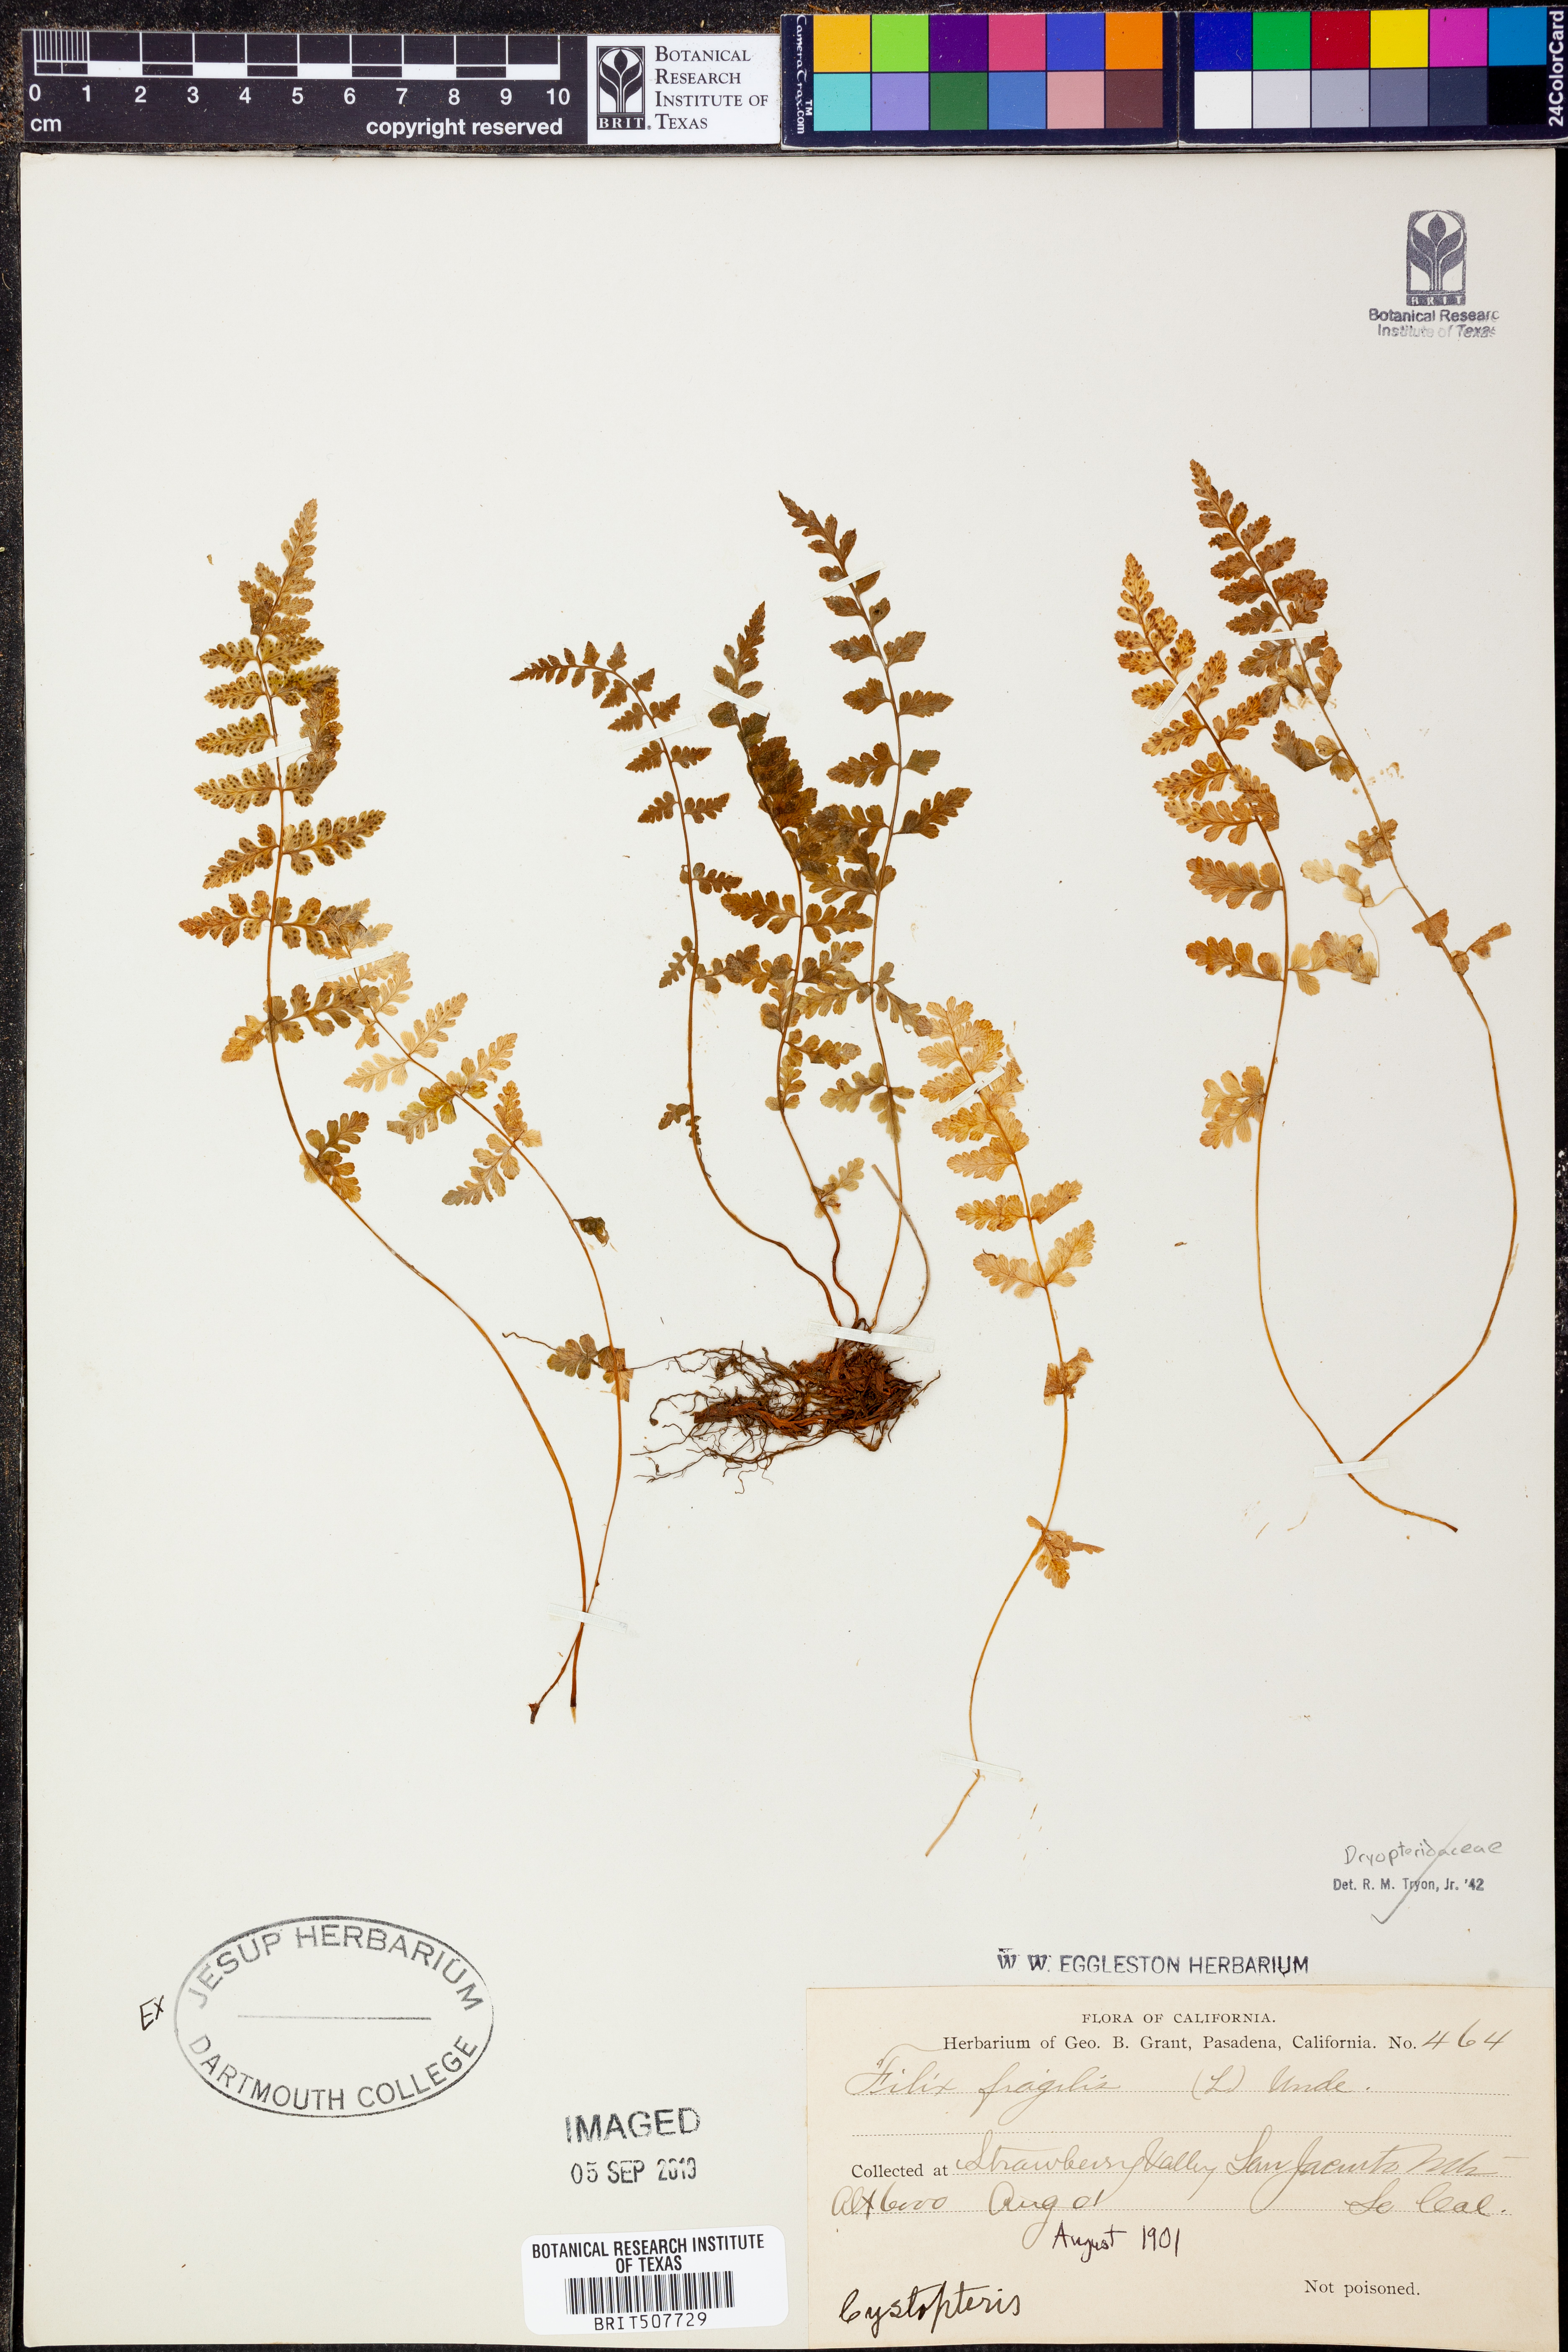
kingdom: Plantae
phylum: Tracheophyta
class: Polypodiopsida
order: Polypodiales
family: Cystopteridaceae
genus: Cystopteris
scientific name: Cystopteris fragilis
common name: Brittle bladder fern
